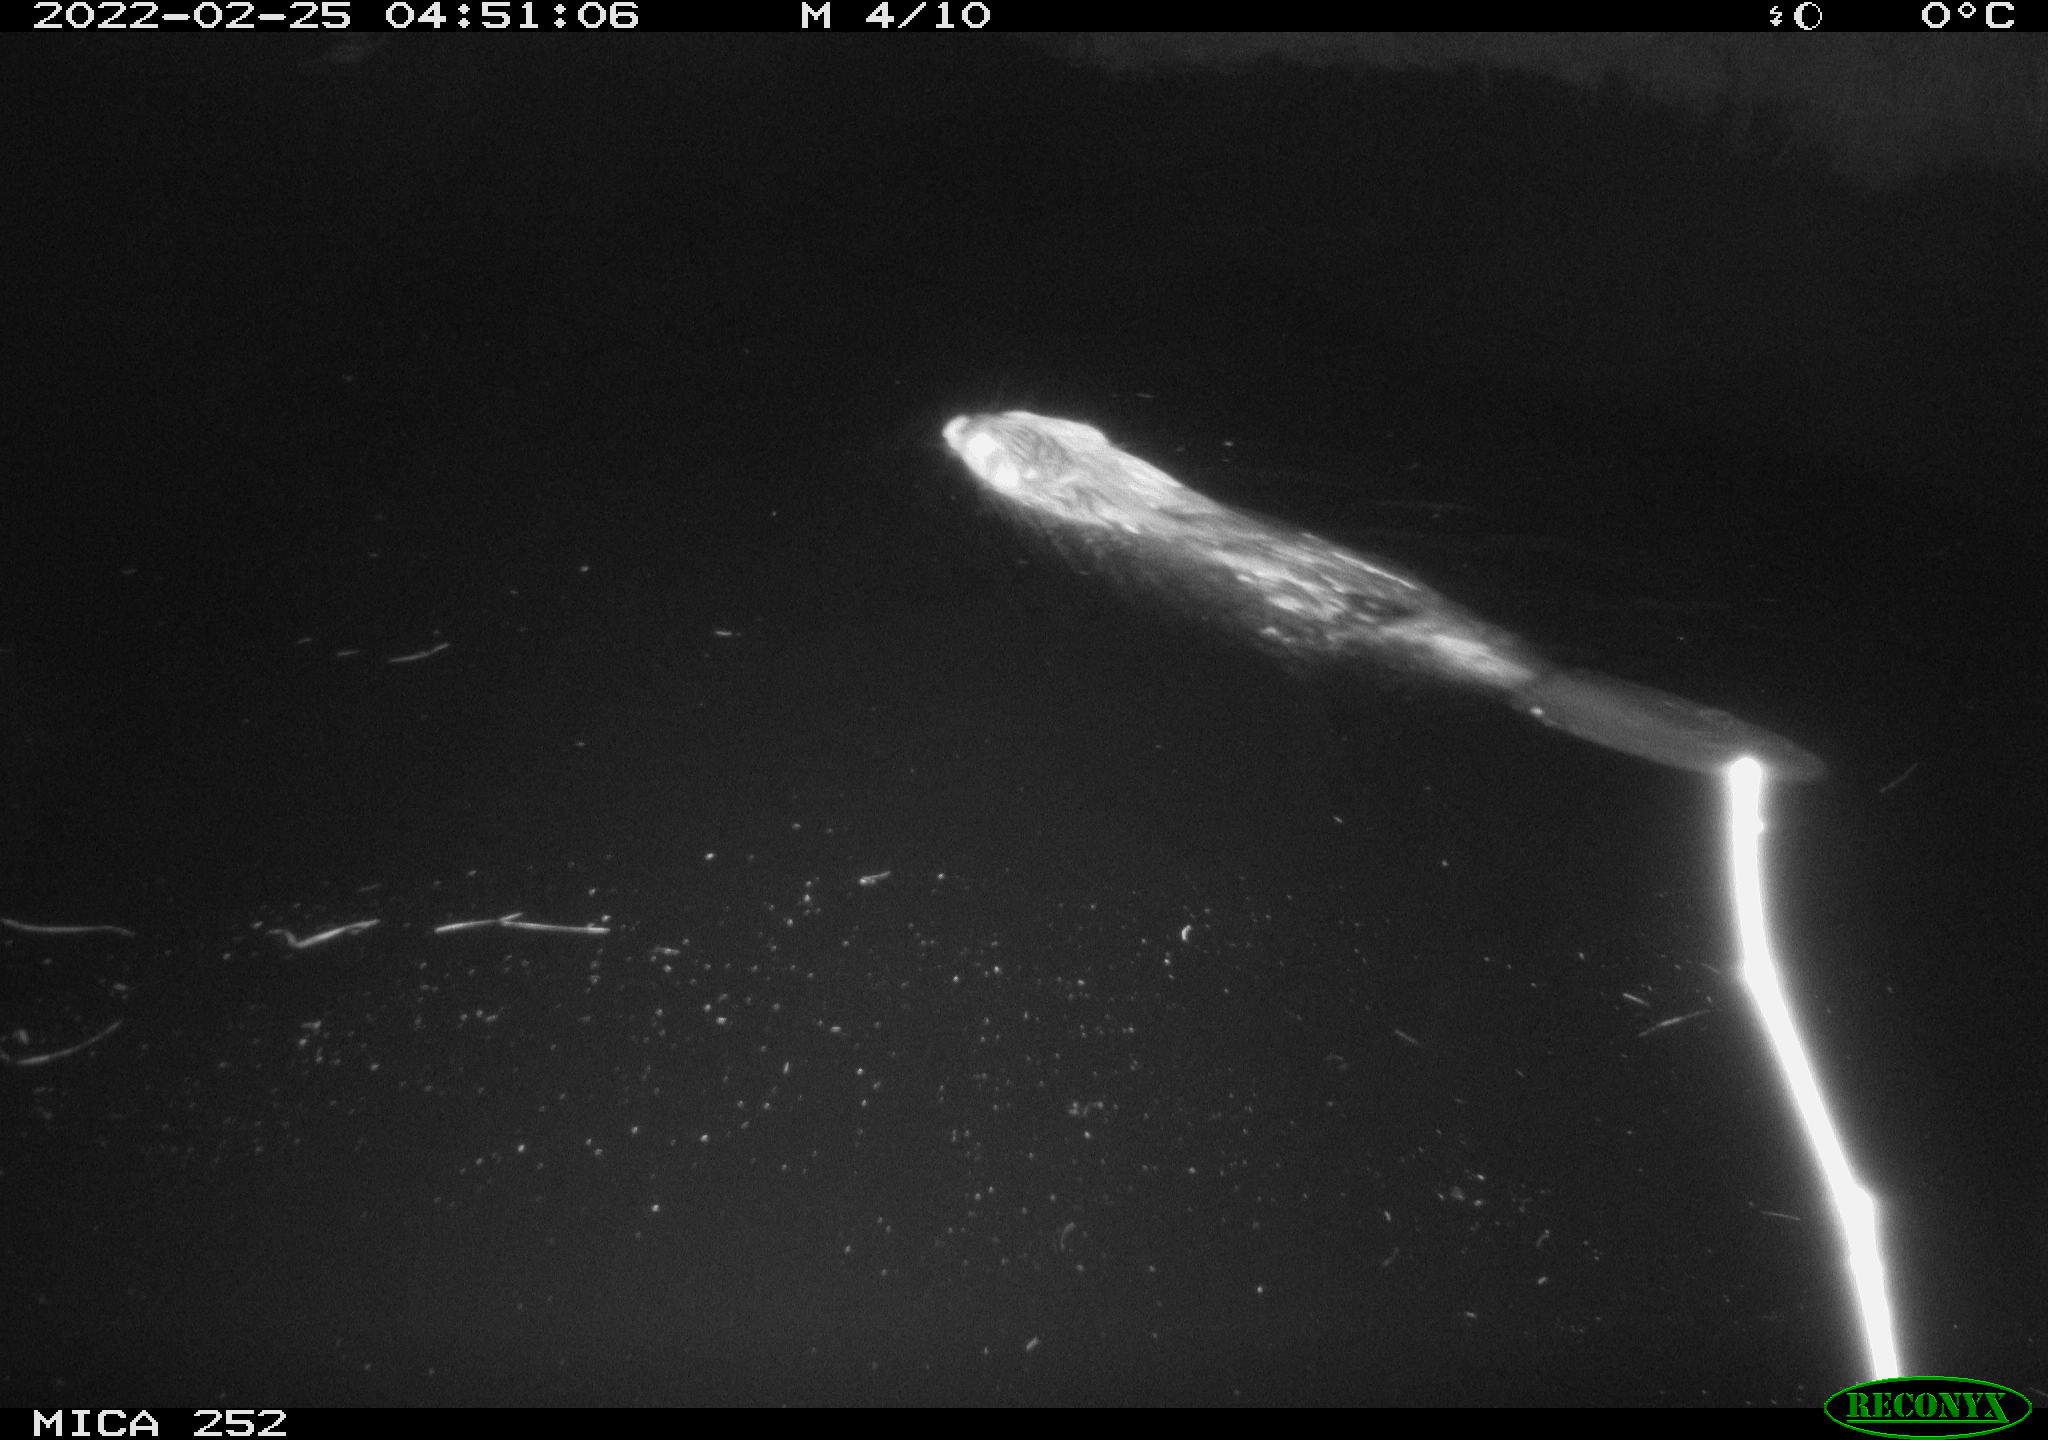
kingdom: Animalia
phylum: Chordata
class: Mammalia
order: Rodentia
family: Castoridae
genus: Castor
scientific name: Castor fiber
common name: Eurasian beaver
